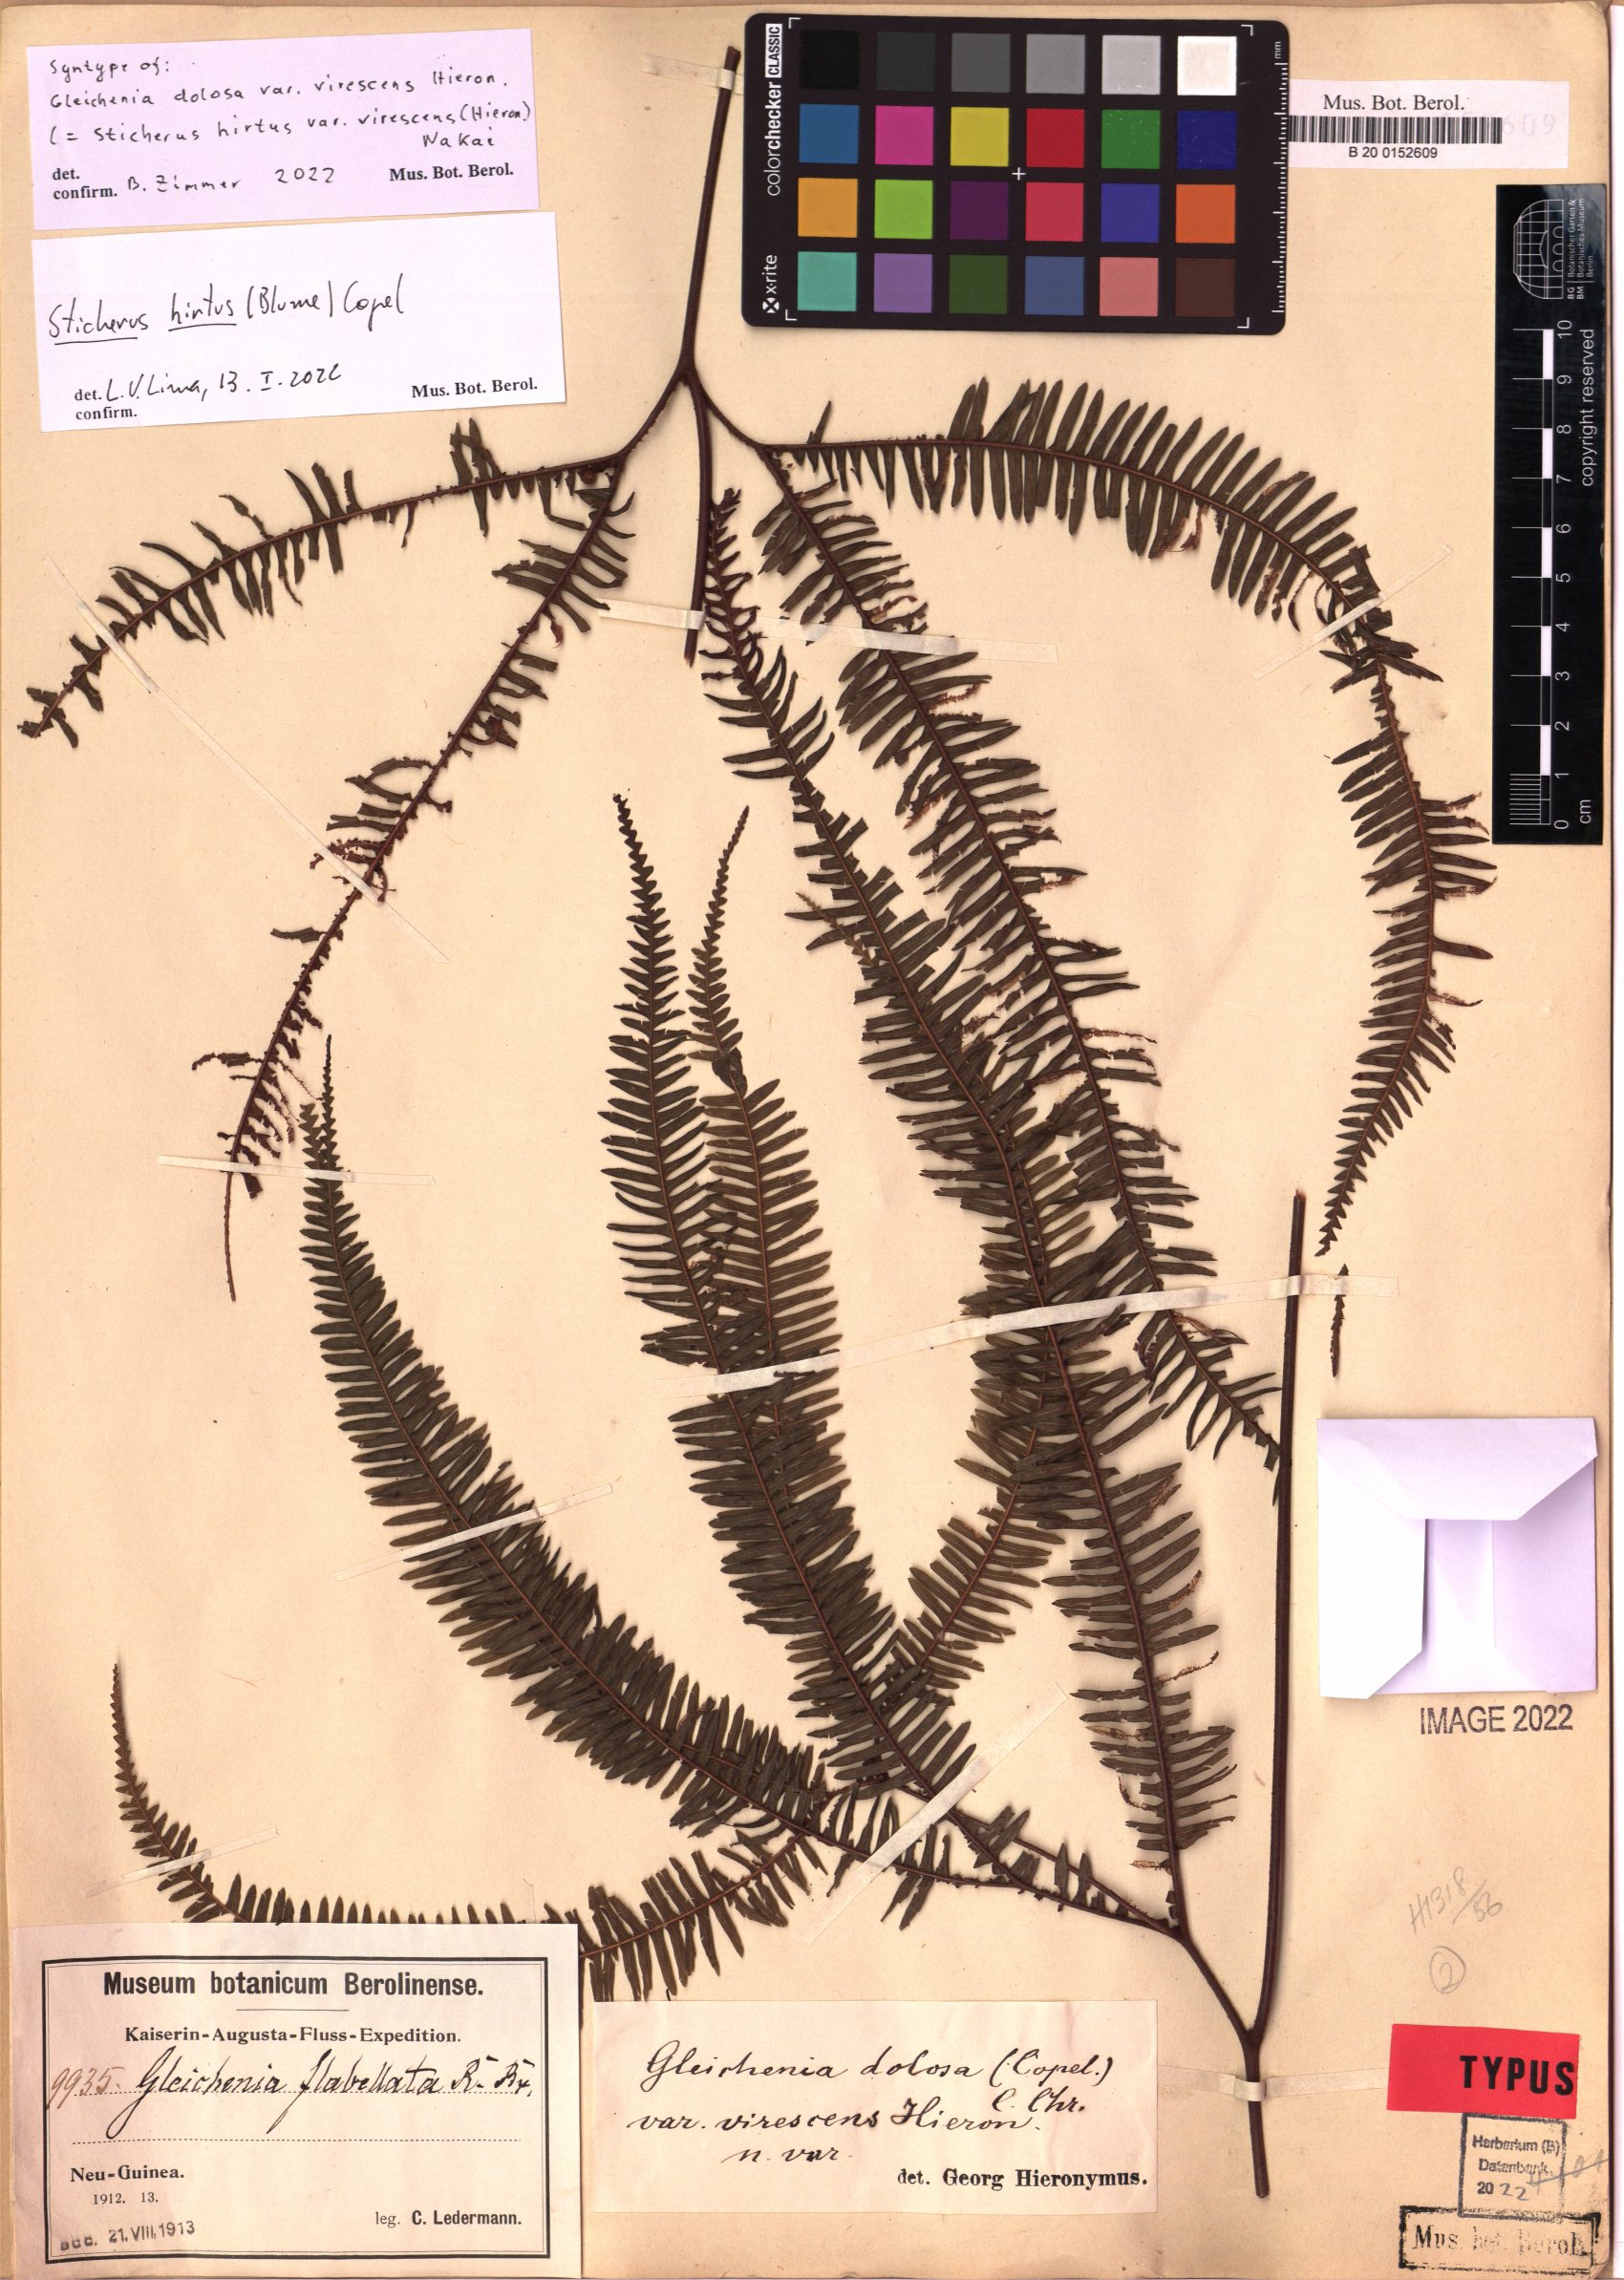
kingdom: Plantae
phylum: Tracheophyta
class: Polypodiopsida
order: Gleicheniales
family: Gleicheniaceae
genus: Sticherus
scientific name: Sticherus hirtus
